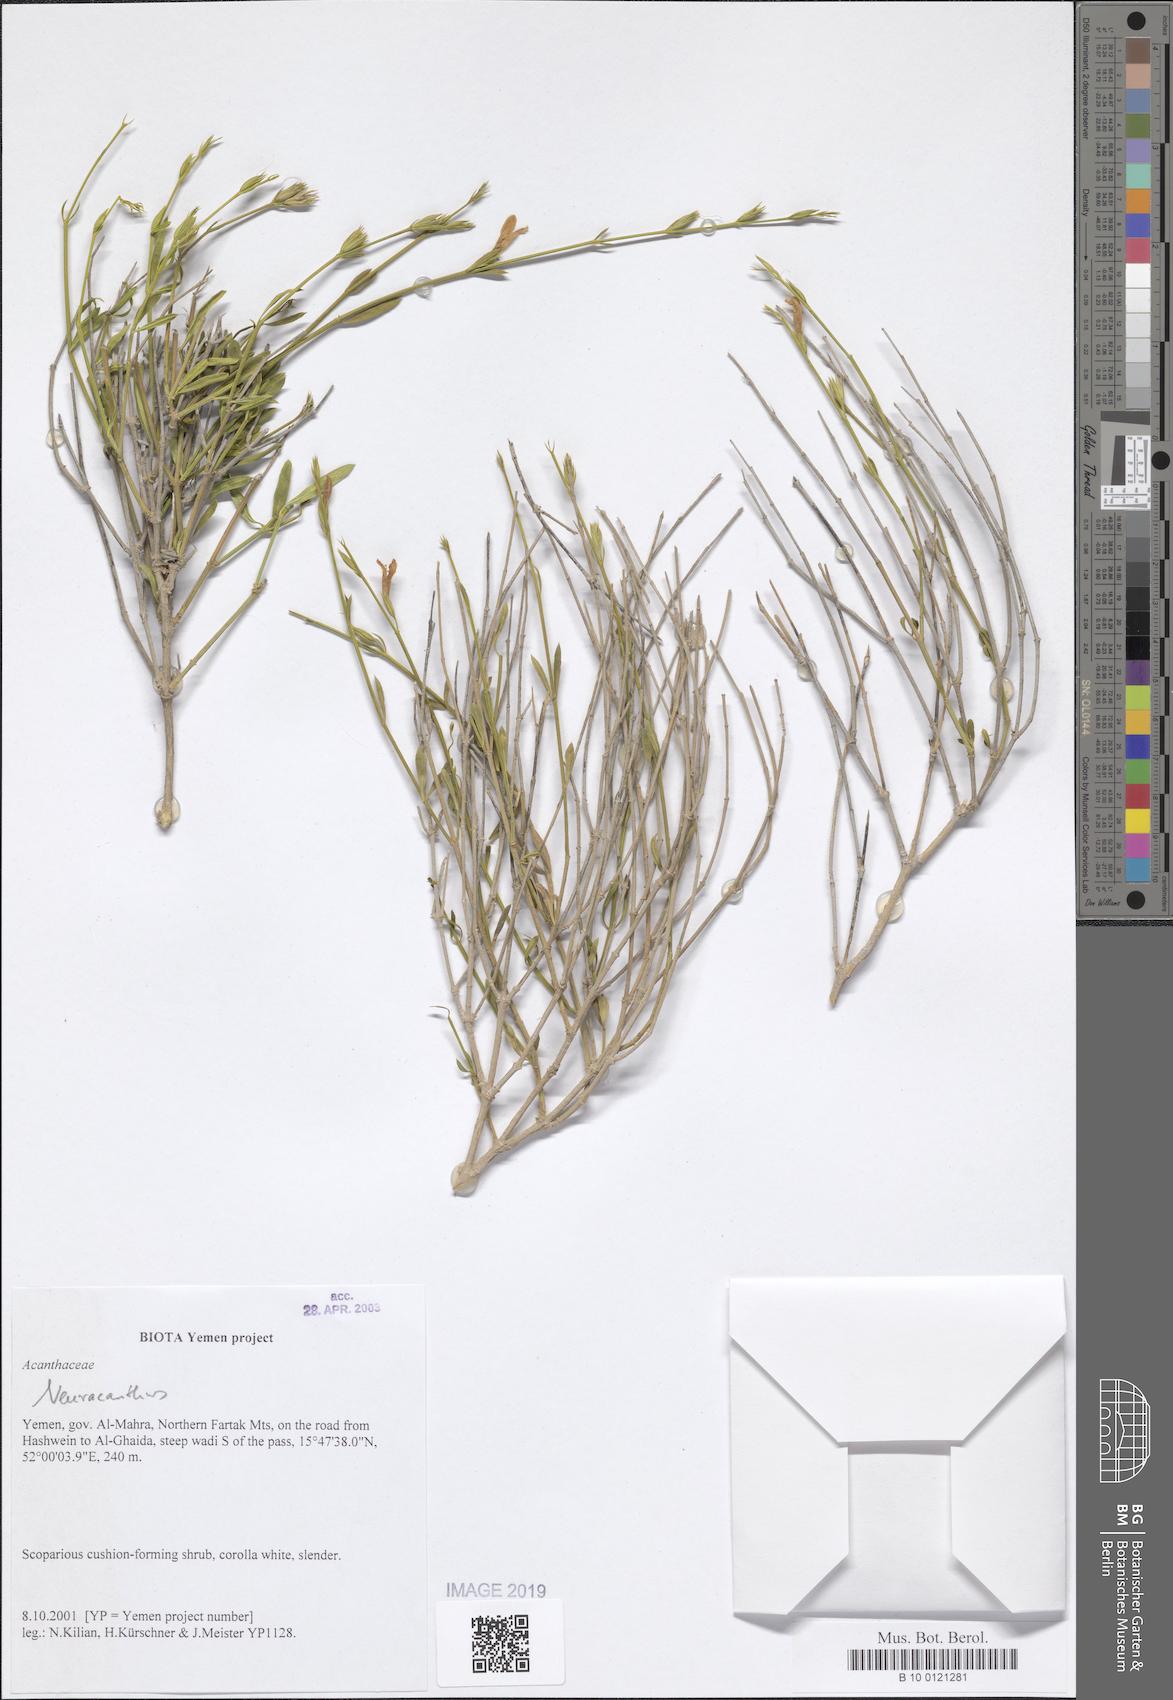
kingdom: Plantae
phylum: Tracheophyta
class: Magnoliopsida
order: Lamiales
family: Acanthaceae
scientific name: Acanthaceae
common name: Acanthaceae
